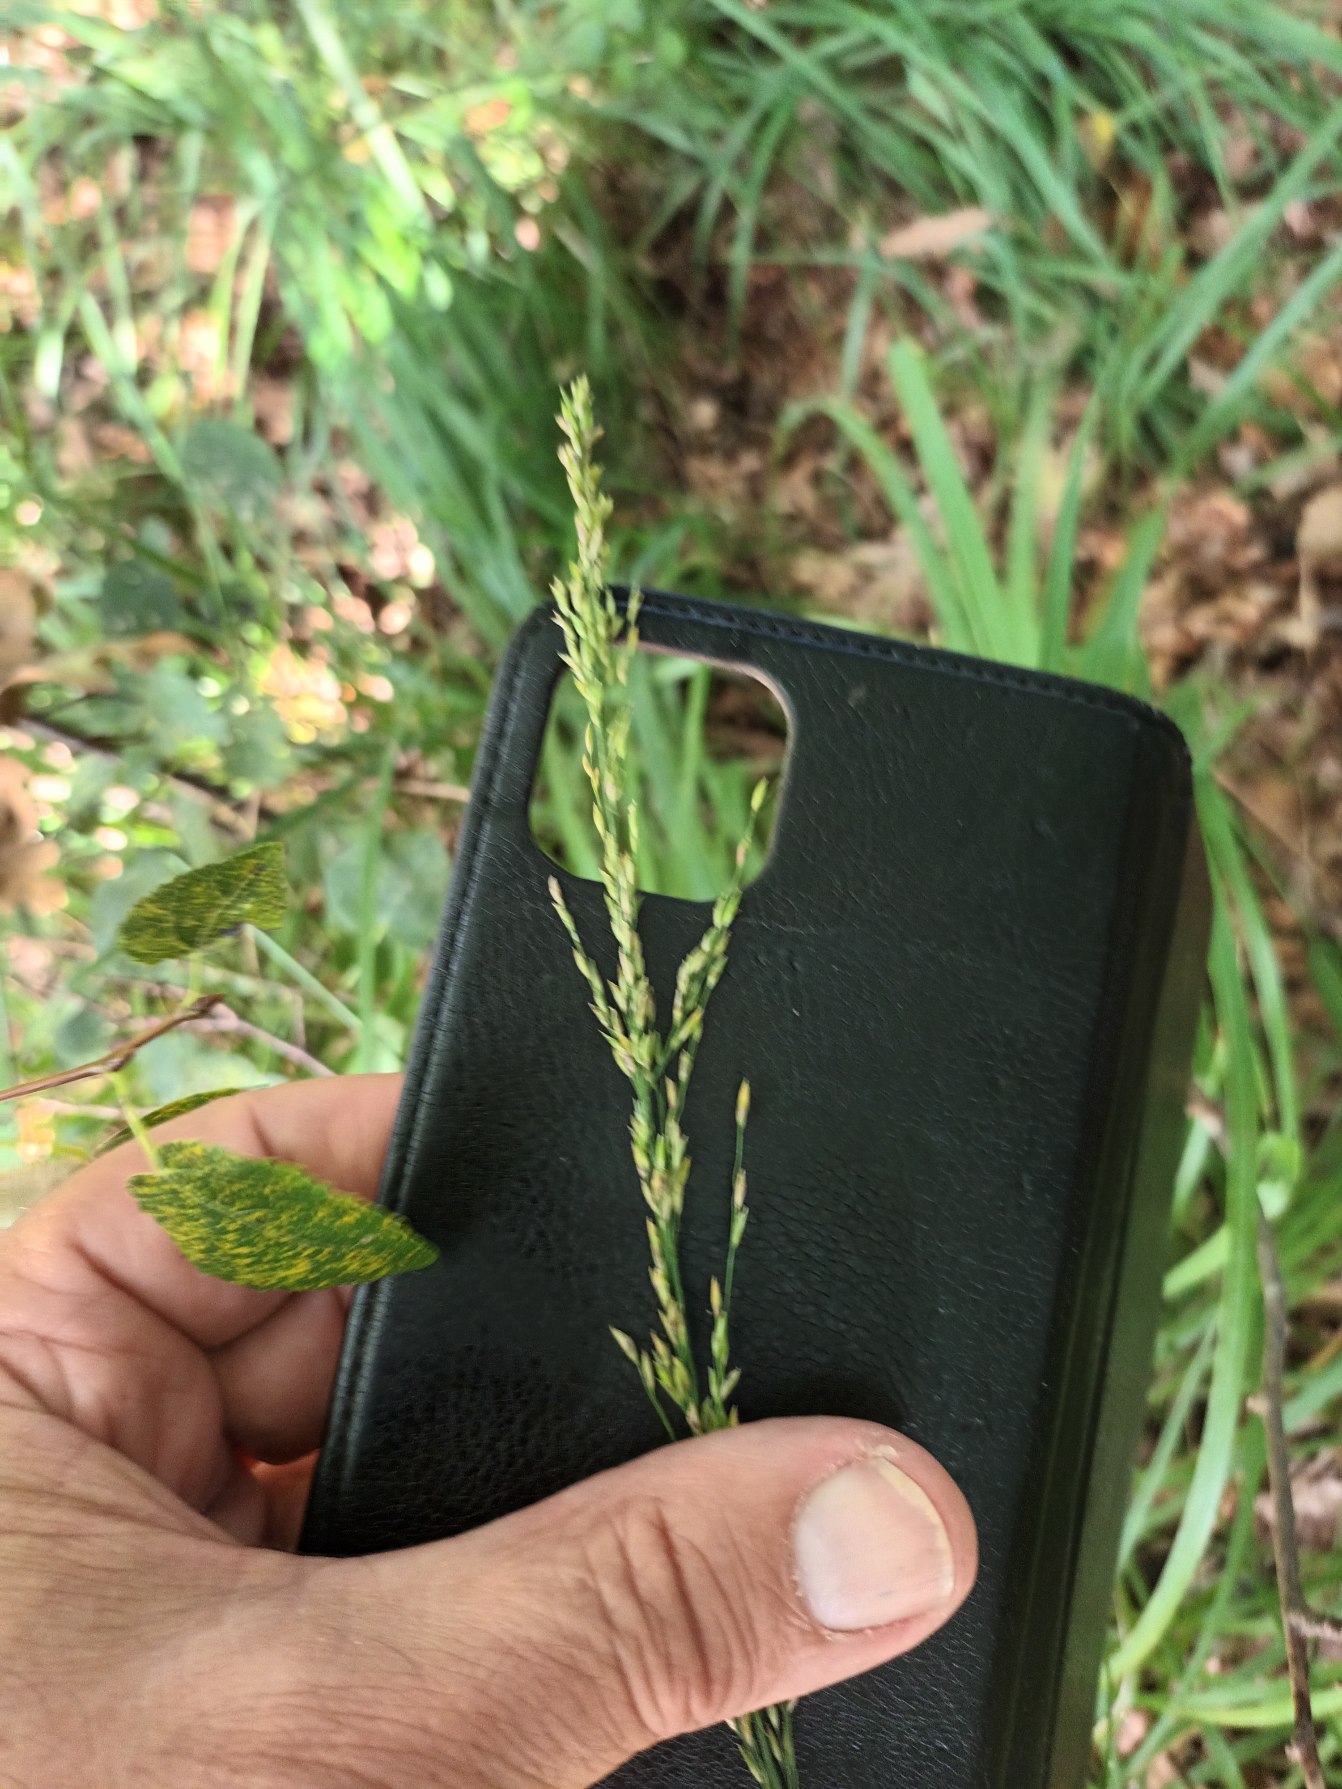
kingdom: Plantae
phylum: Tracheophyta
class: Liliopsida
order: Poales
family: Poaceae
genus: Molinia
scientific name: Molinia caerulea
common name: Blåtop
